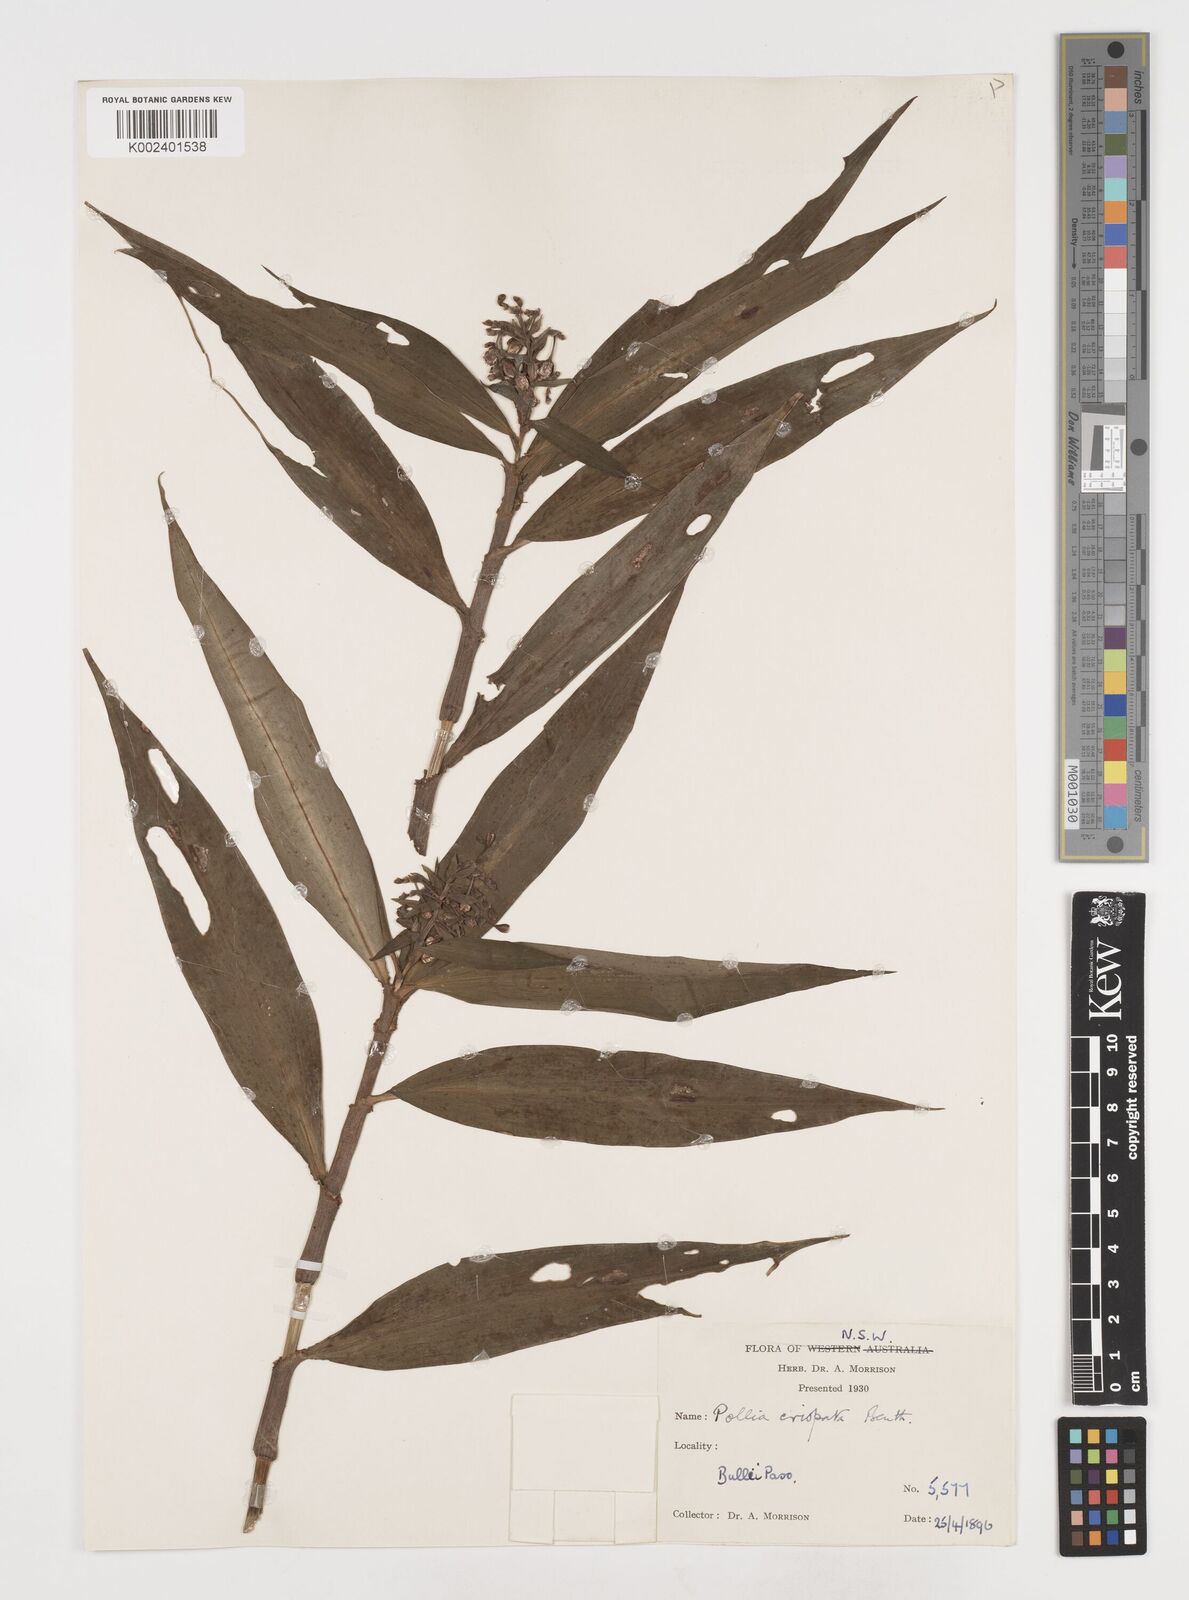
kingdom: Plantae
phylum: Tracheophyta
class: Liliopsida
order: Commelinales
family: Commelinaceae
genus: Pollia
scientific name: Pollia crispata
